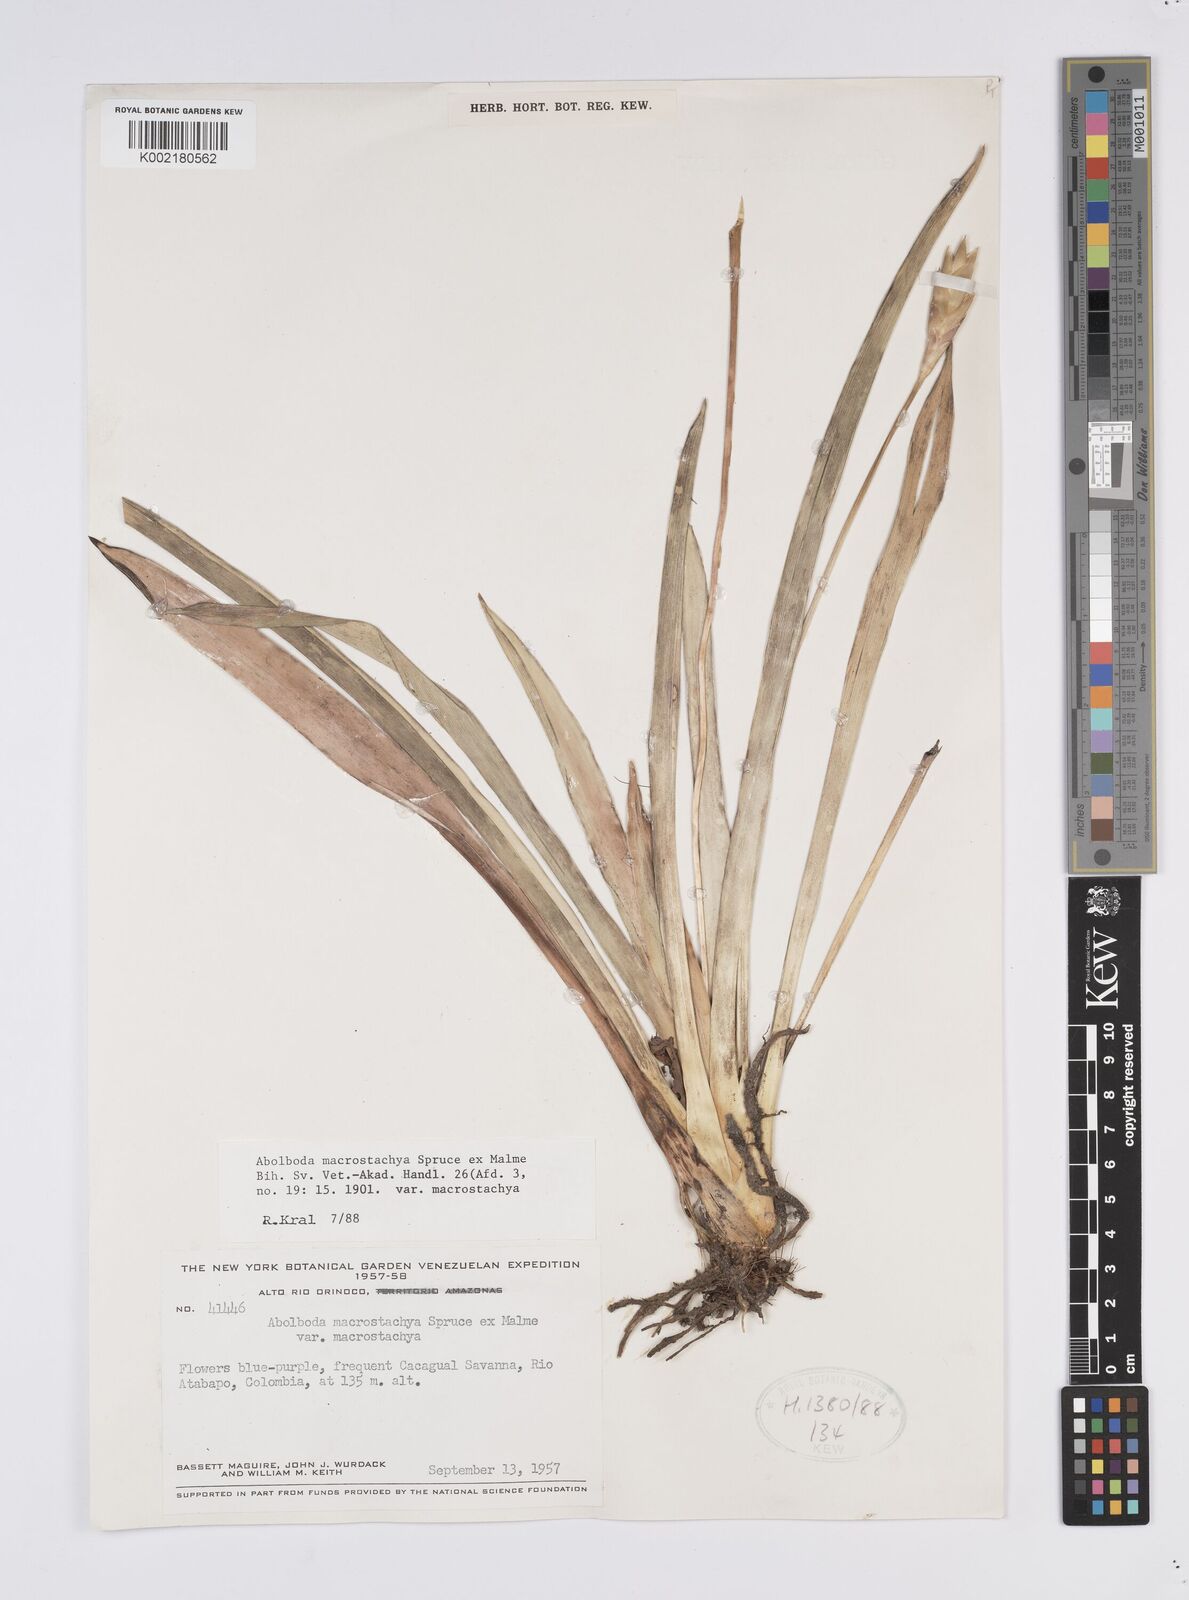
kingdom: Plantae
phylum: Tracheophyta
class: Liliopsida
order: Poales
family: Xyridaceae
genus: Abolboda
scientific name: Abolboda macrostachya
